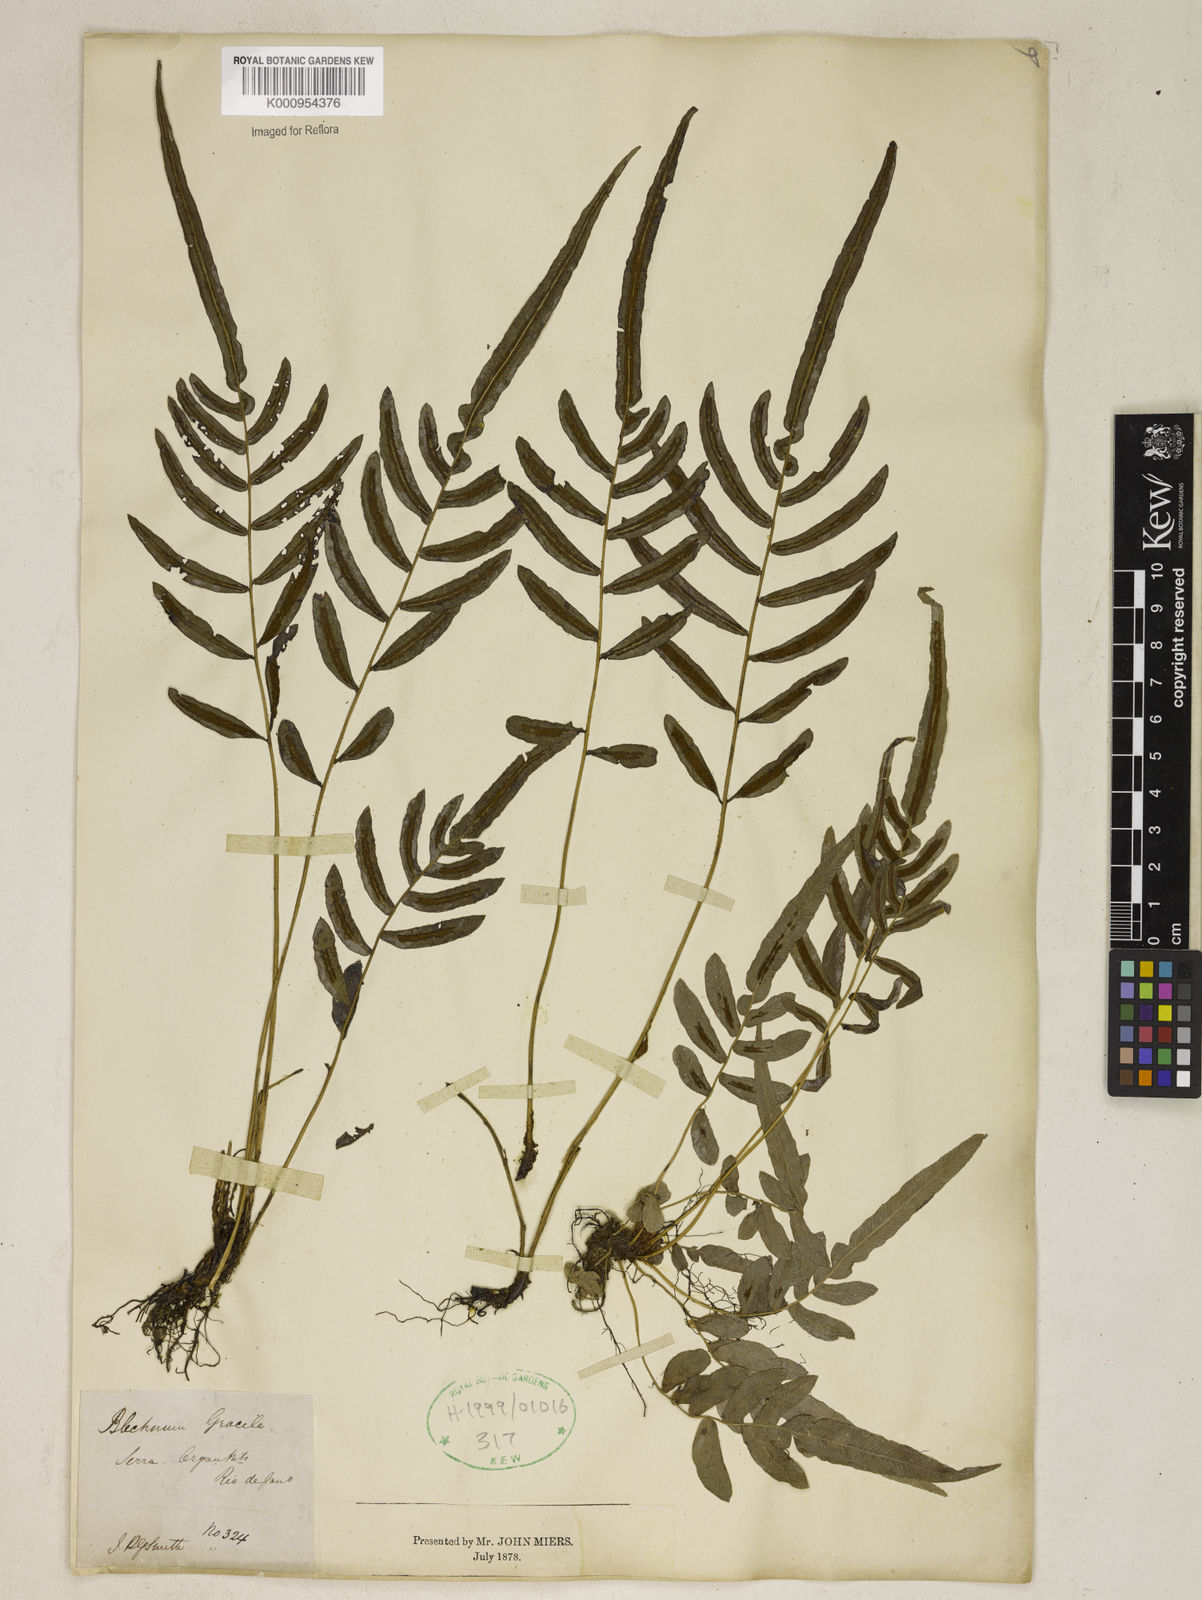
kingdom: Plantae
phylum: Tracheophyta
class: Polypodiopsida
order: Polypodiales
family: Blechnaceae
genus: Blechnum
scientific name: Blechnum gracile
